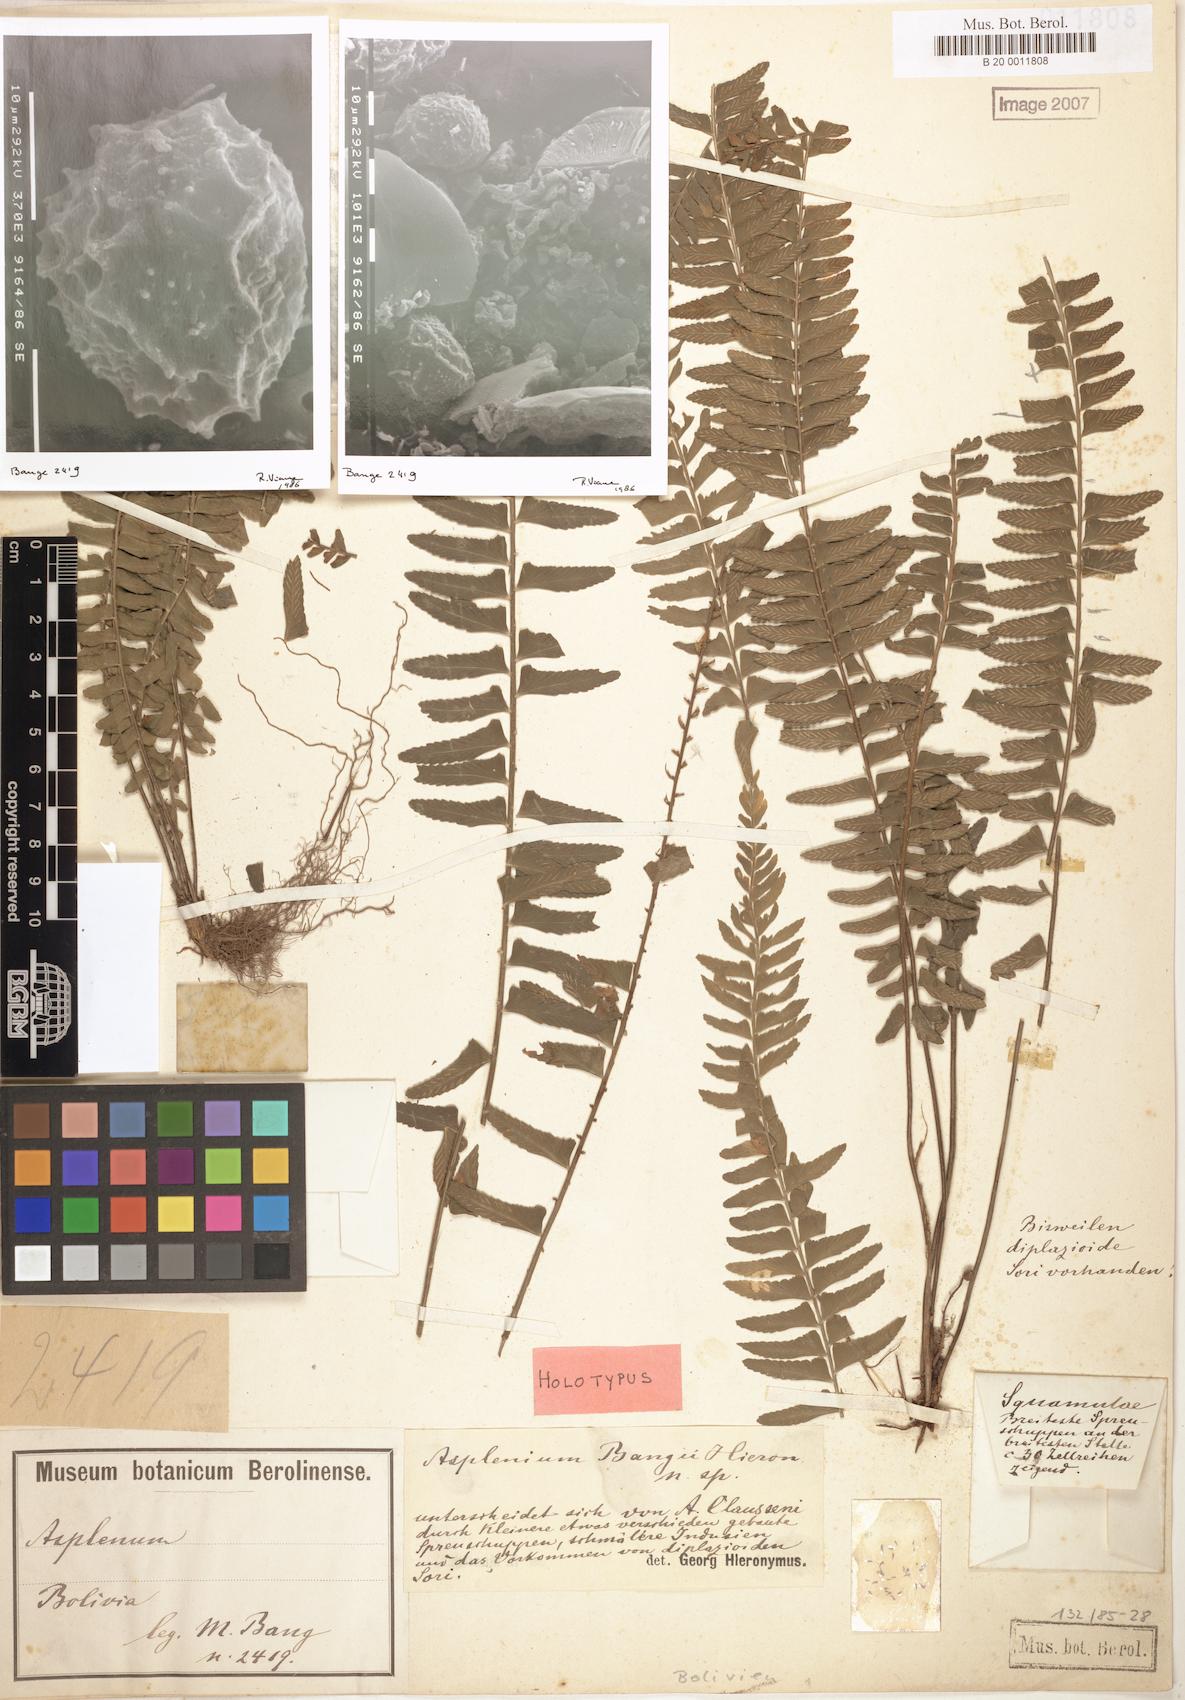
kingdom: Plantae
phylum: Tracheophyta
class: Polypodiopsida
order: Polypodiales
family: Aspleniaceae
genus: Asplenium
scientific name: Asplenium bangii
